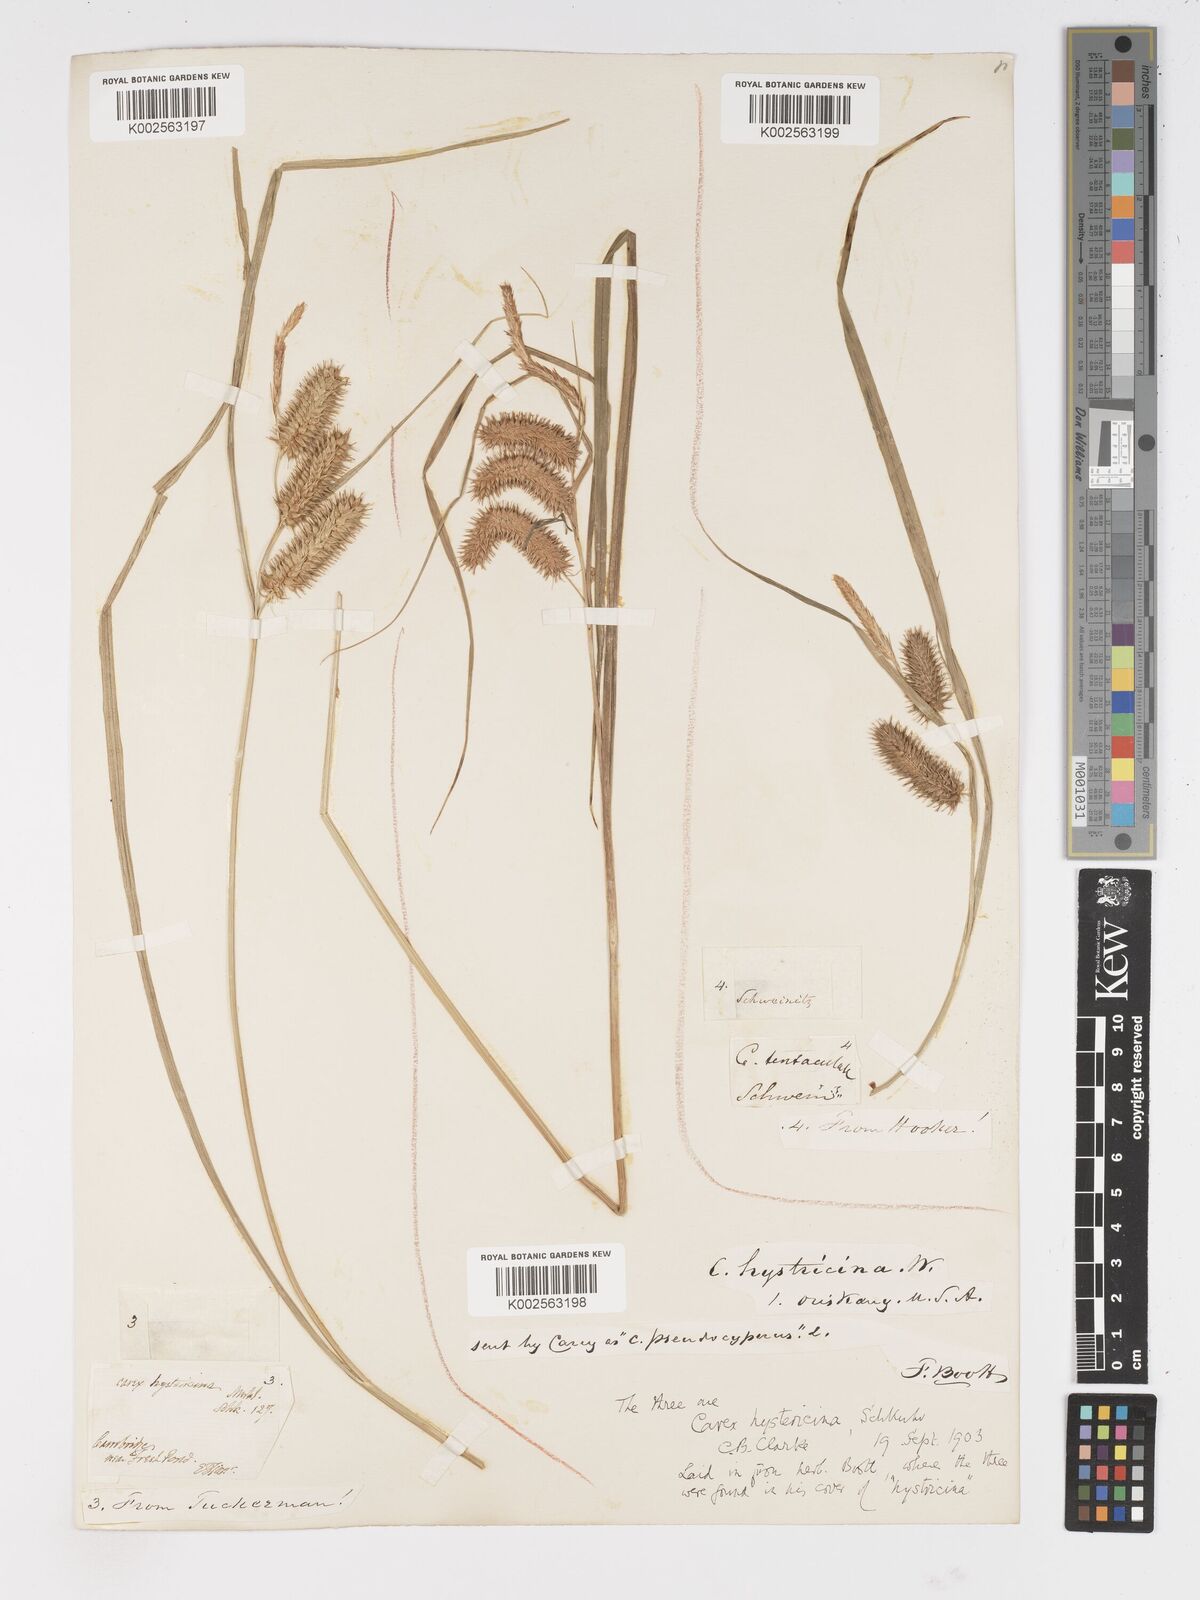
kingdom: Plantae
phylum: Tracheophyta
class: Liliopsida
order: Poales
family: Cyperaceae
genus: Carex
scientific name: Carex hystericina
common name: Bottlebrush sedge
